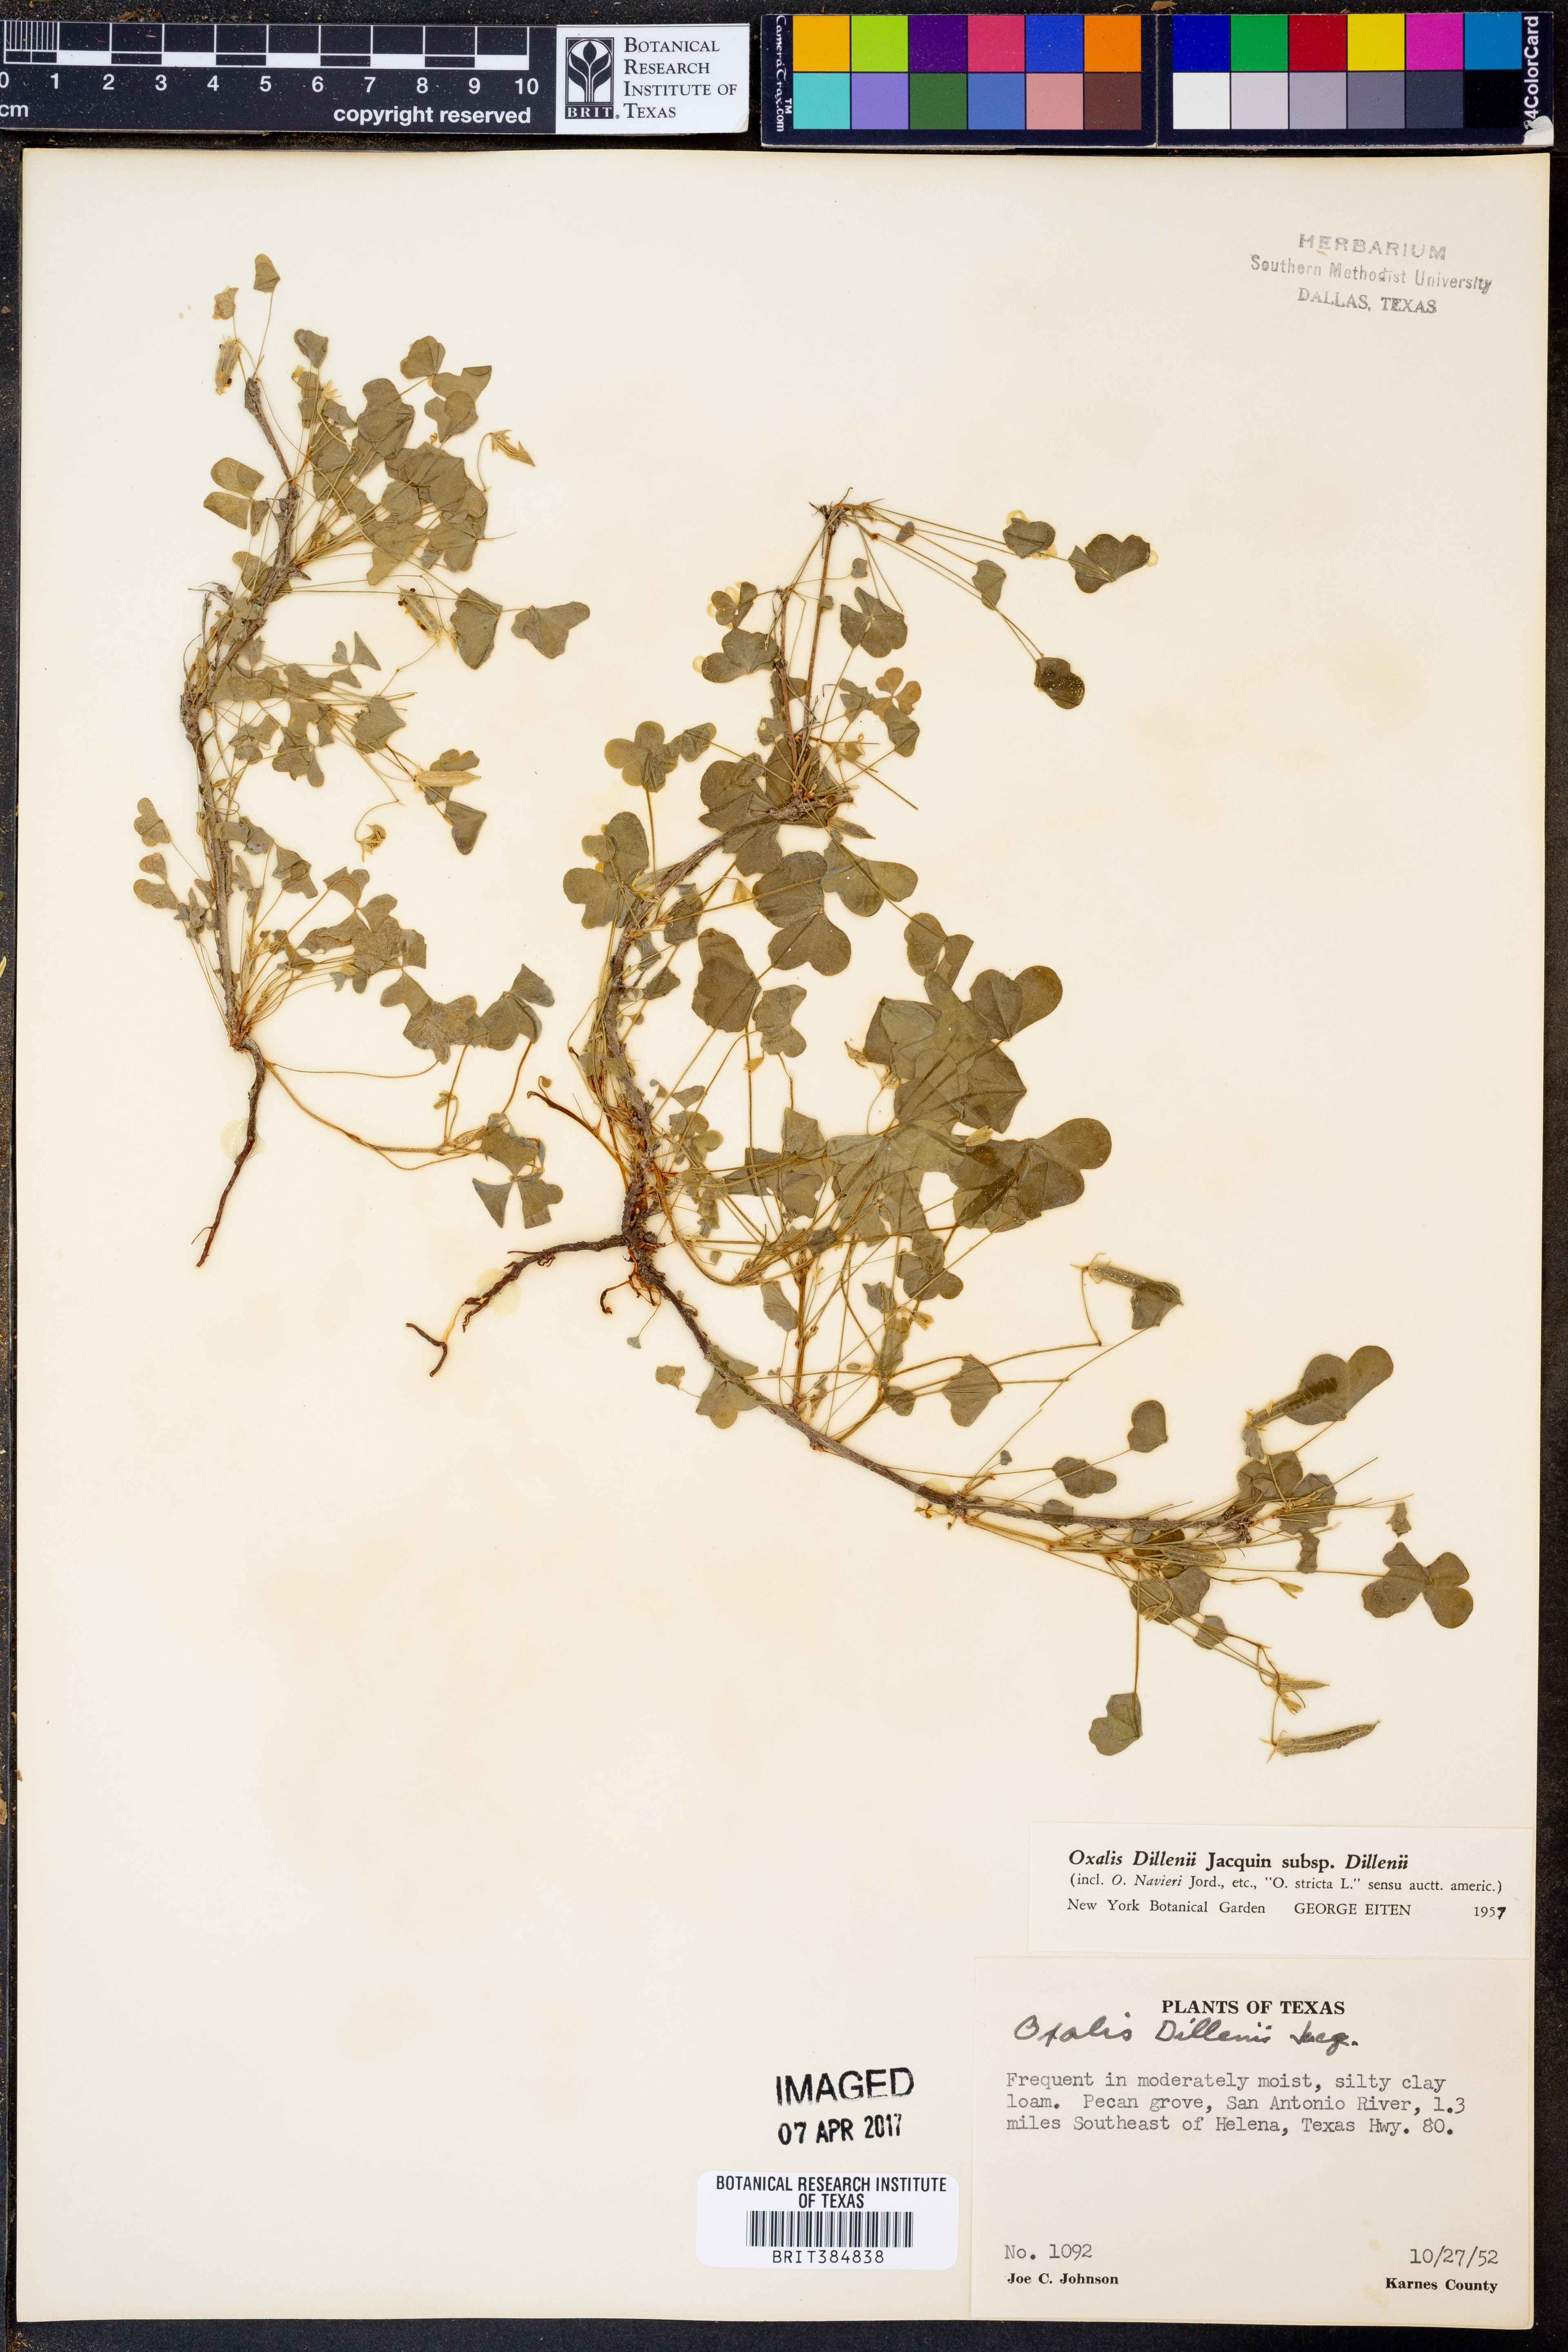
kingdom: Plantae
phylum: Tracheophyta
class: Magnoliopsida
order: Oxalidales
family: Oxalidaceae
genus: Oxalis
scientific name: Oxalis dillenii
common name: Sussex yellow-sorrel
